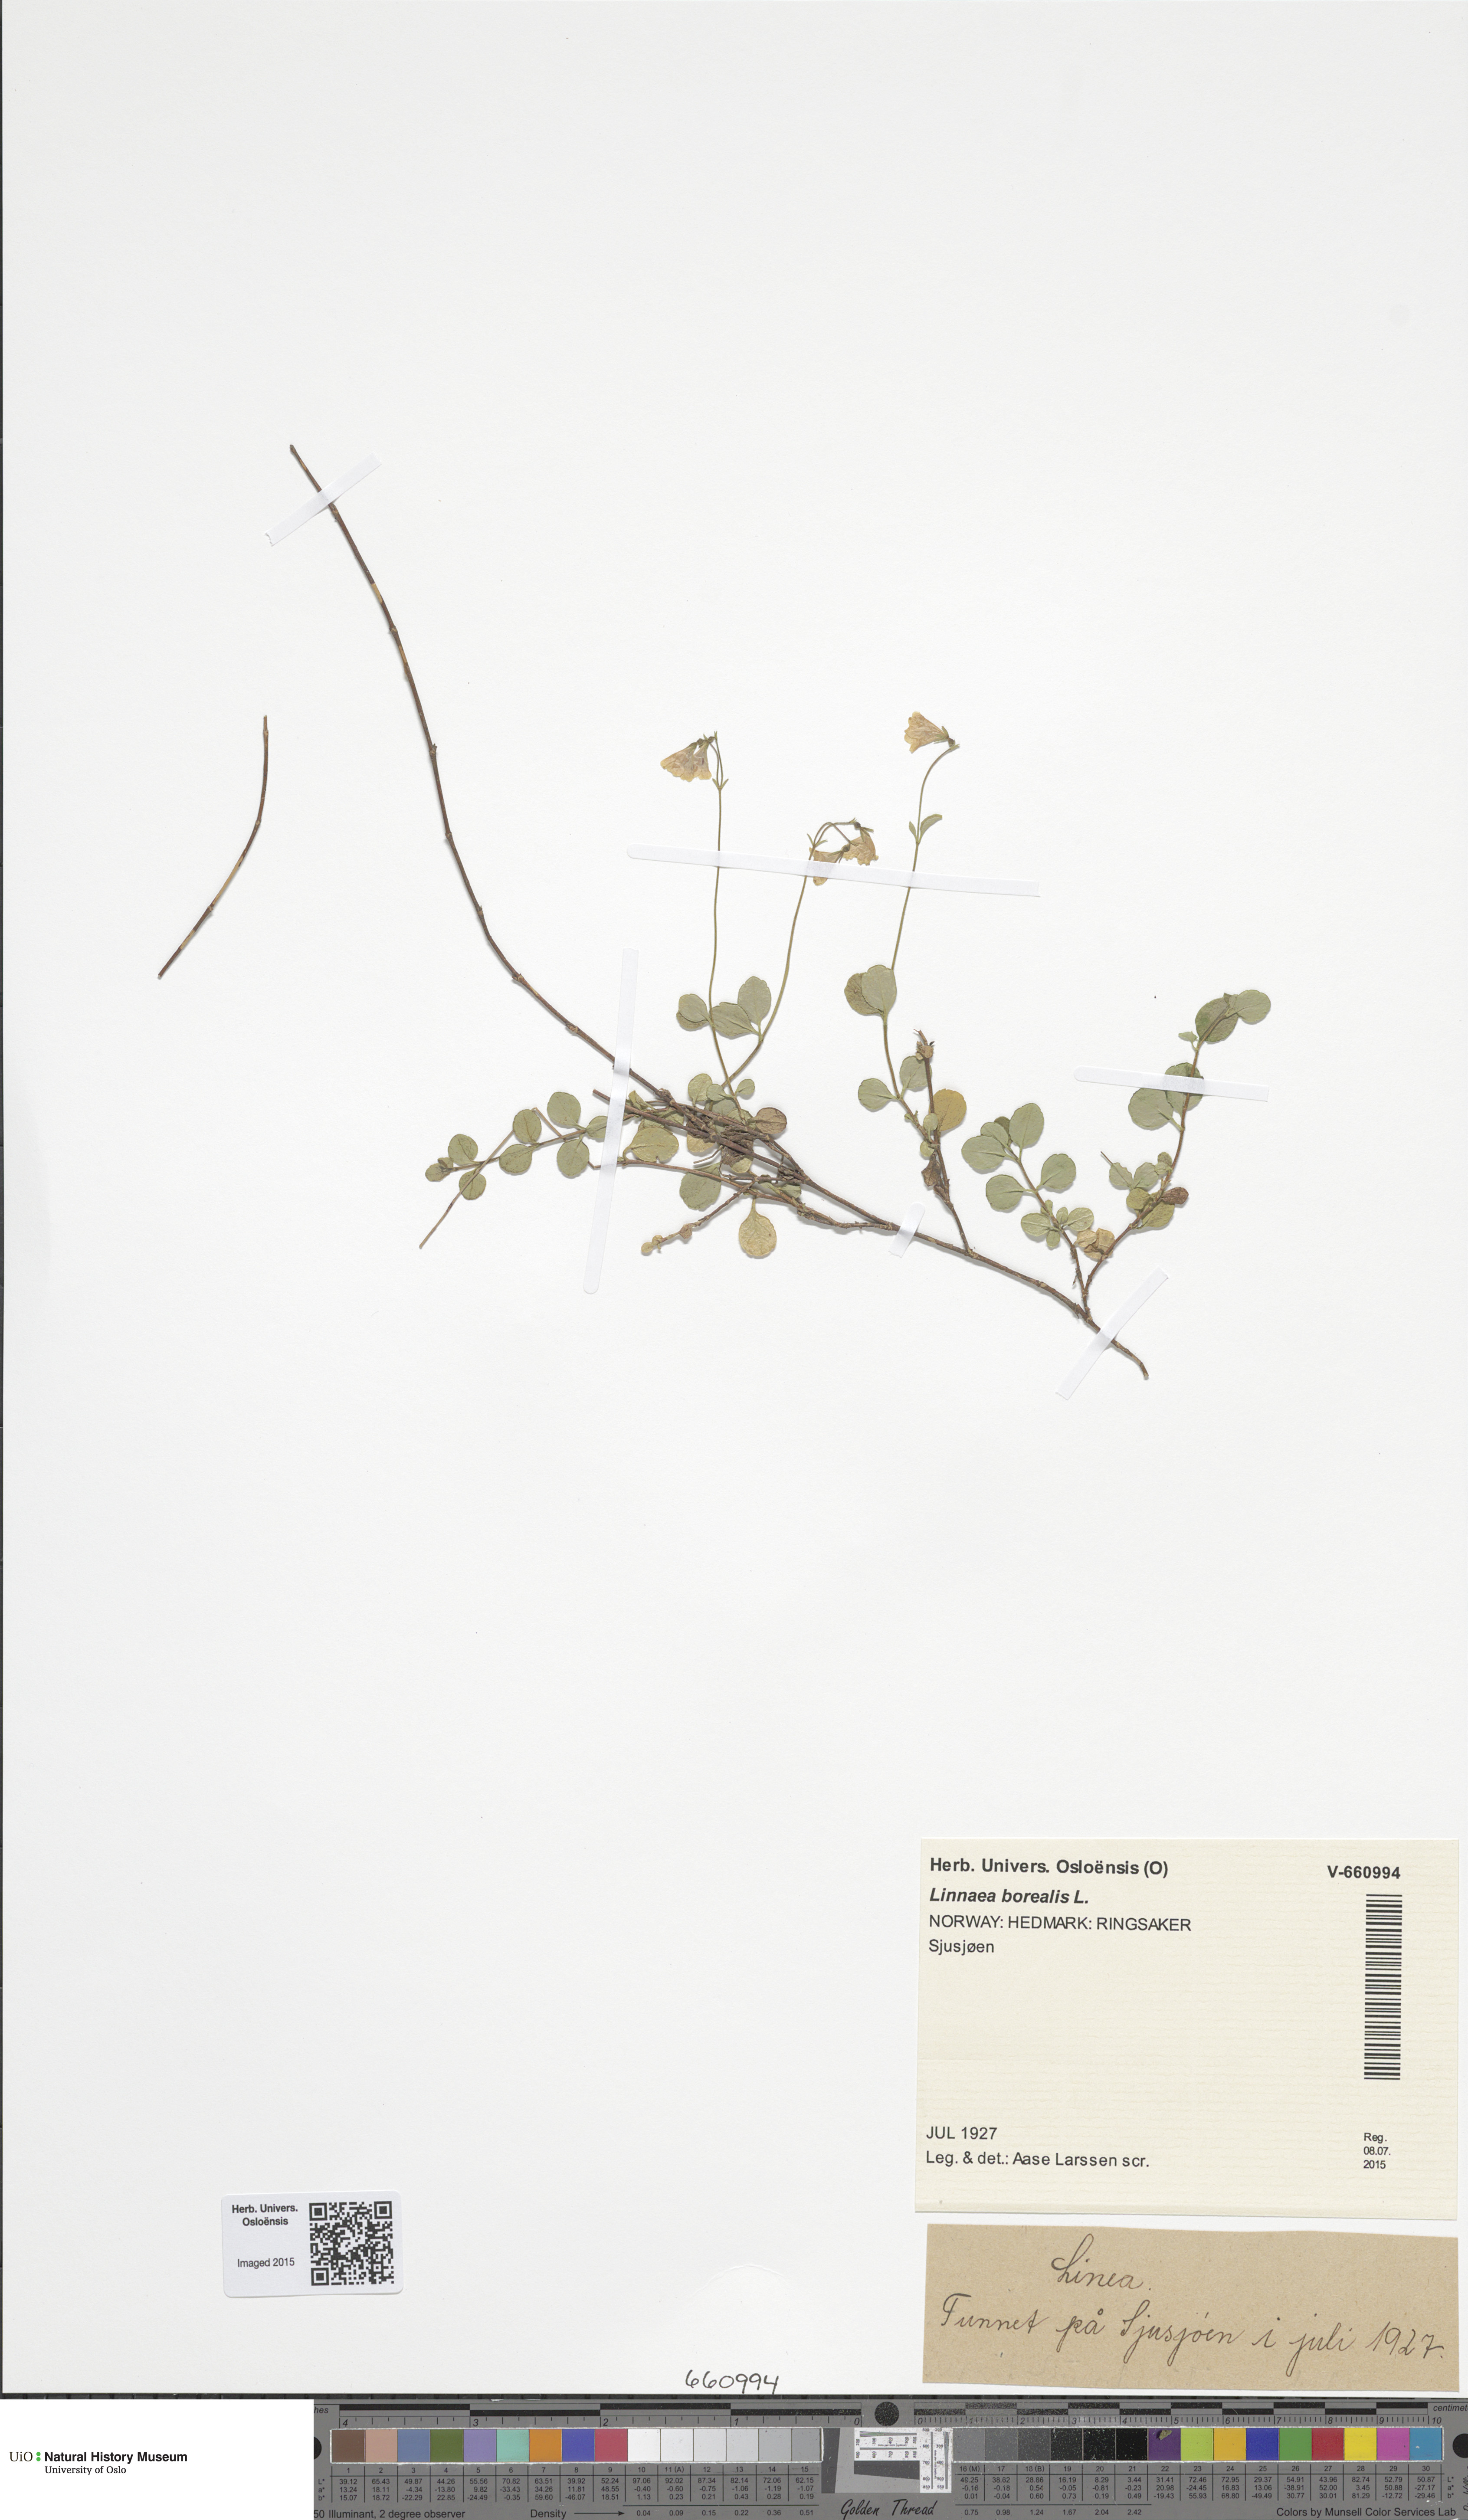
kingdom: Plantae
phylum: Tracheophyta
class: Magnoliopsida
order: Dipsacales
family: Caprifoliaceae
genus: Linnaea
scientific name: Linnaea borealis
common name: Twinflower
